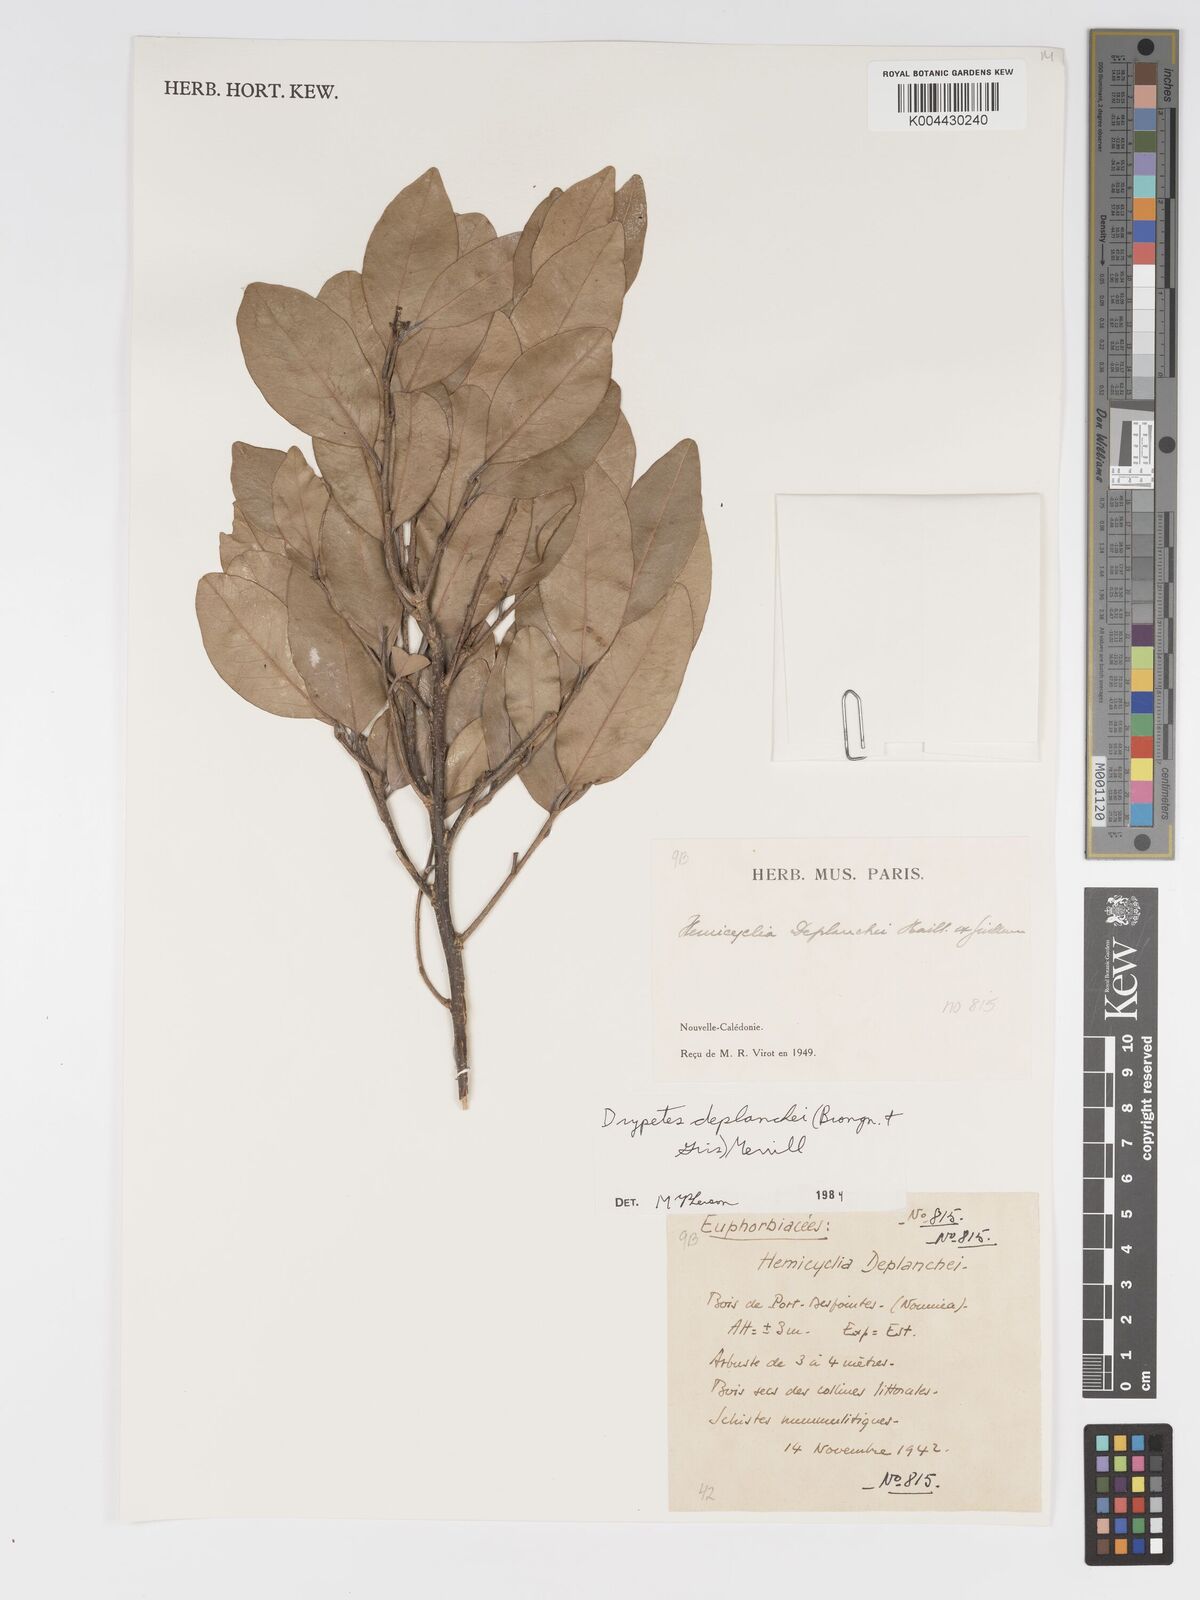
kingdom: Plantae
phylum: Tracheophyta
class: Magnoliopsida
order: Malpighiales
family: Putranjivaceae
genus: Drypetes
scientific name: Drypetes deplanchei
